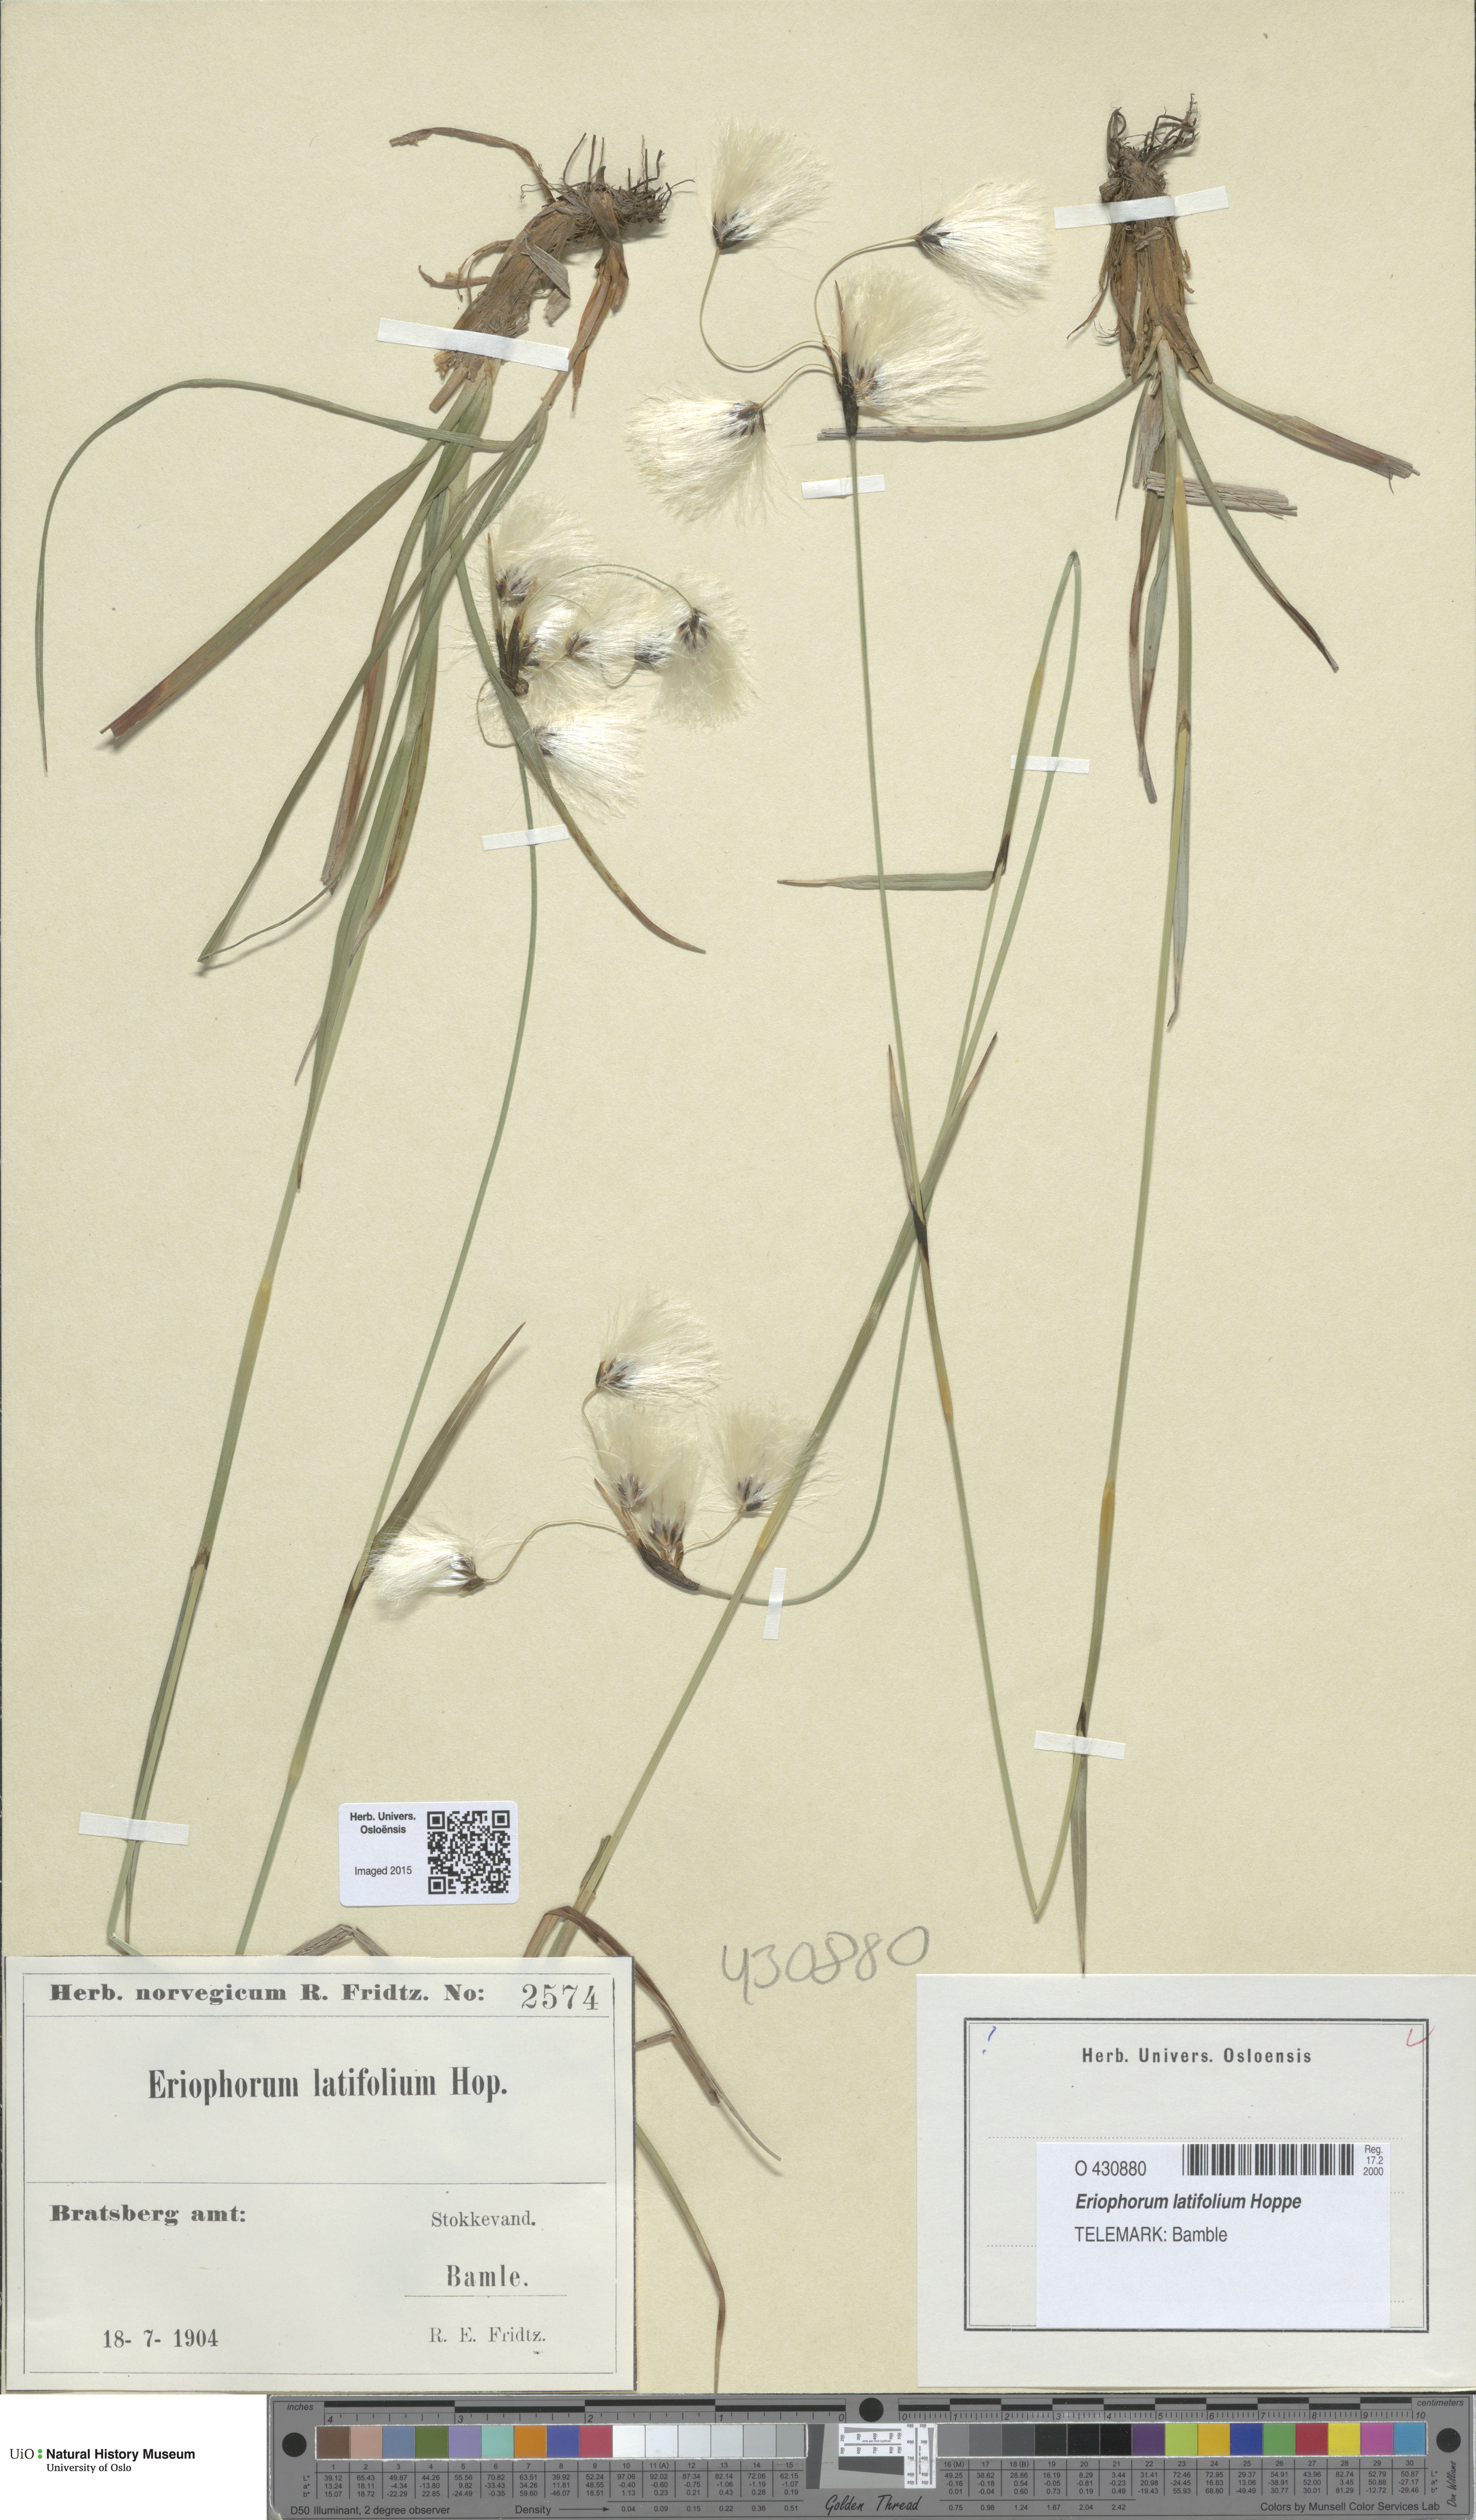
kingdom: Plantae
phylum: Tracheophyta
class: Liliopsida
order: Poales
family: Cyperaceae
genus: Eriophorum
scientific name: Eriophorum latifolium
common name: Broad-leaved cottongrass
